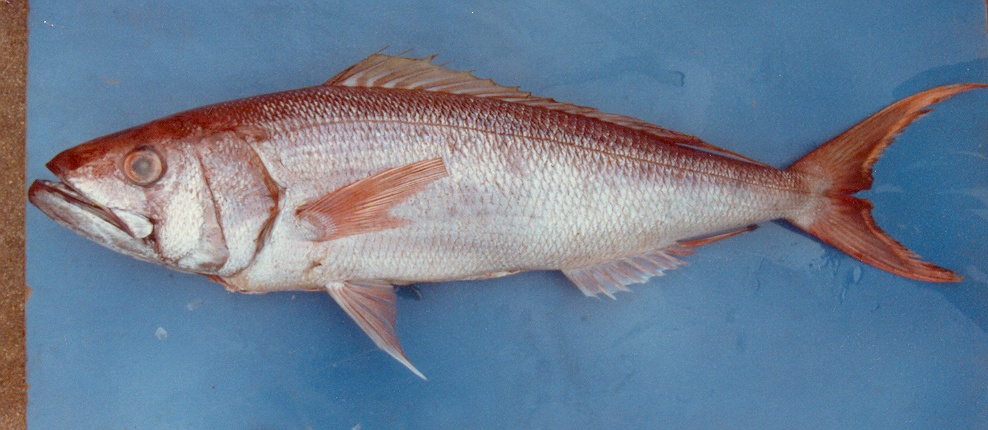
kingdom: Animalia
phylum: Chordata
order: Perciformes
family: Lutjanidae
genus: Aphareus
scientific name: Aphareus rutilans
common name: Rusty jobfish
